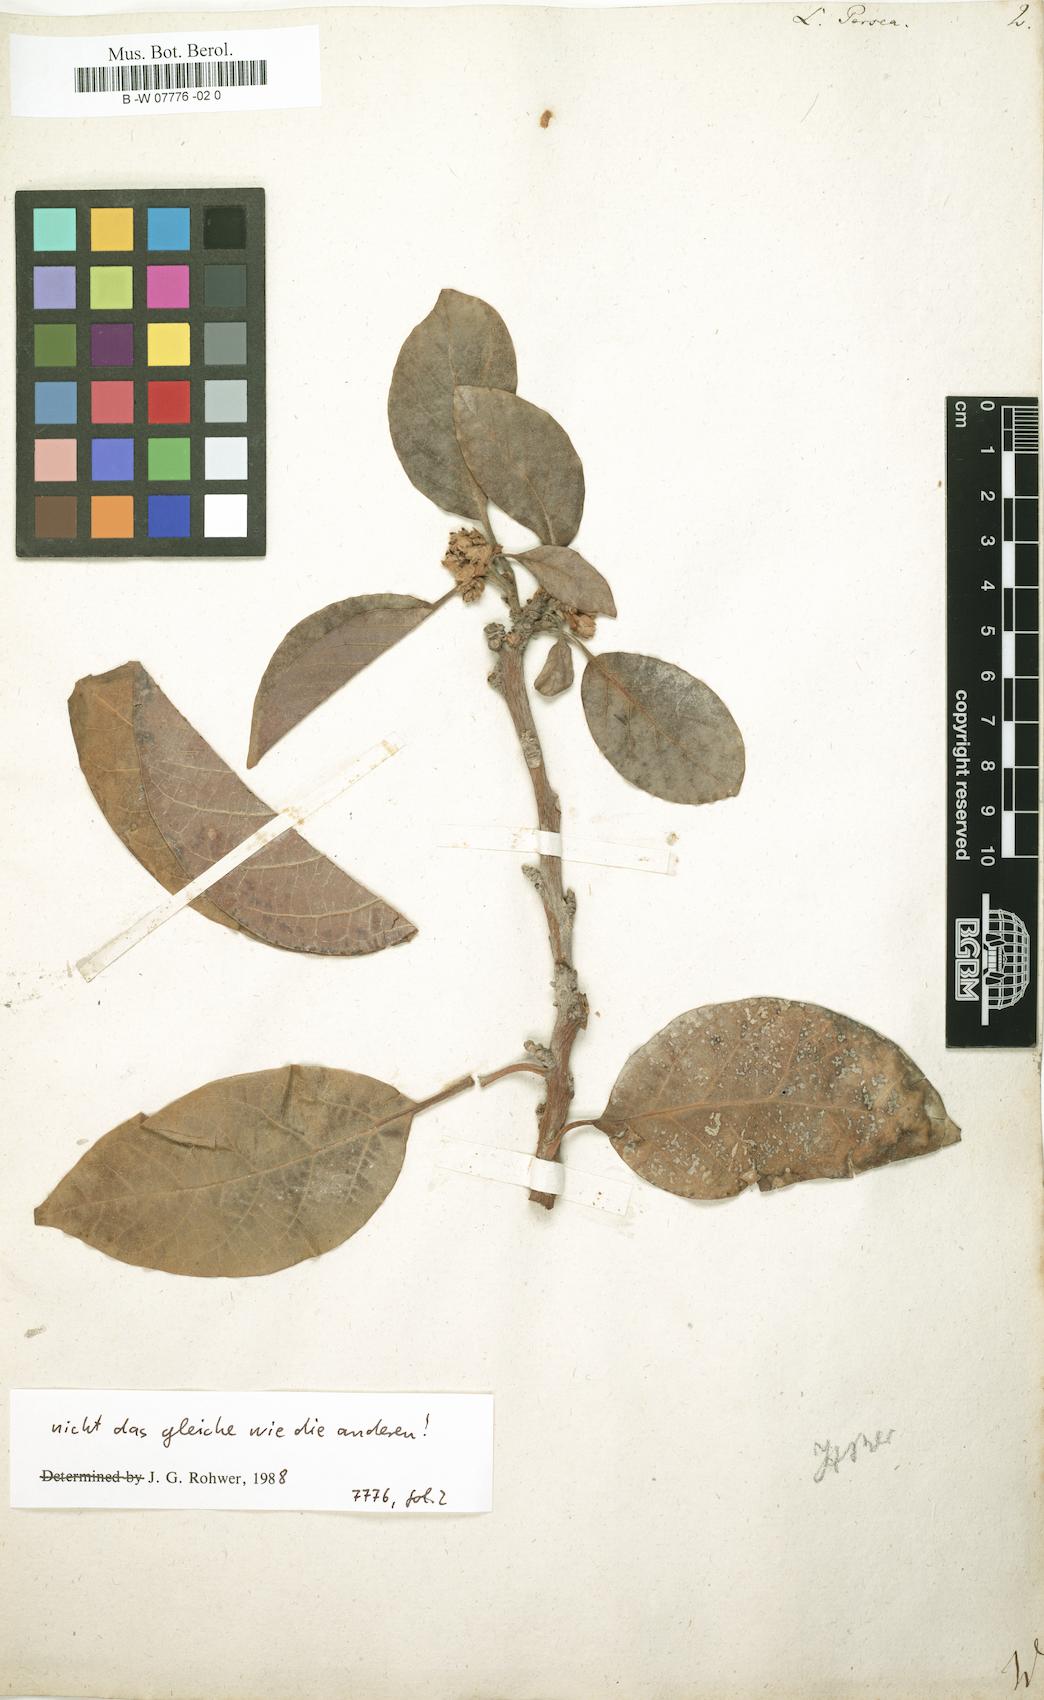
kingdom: Plantae
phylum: Tracheophyta
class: Magnoliopsida
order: Laurales
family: Lauraceae
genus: Persea
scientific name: Persea americana
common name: Avocado
